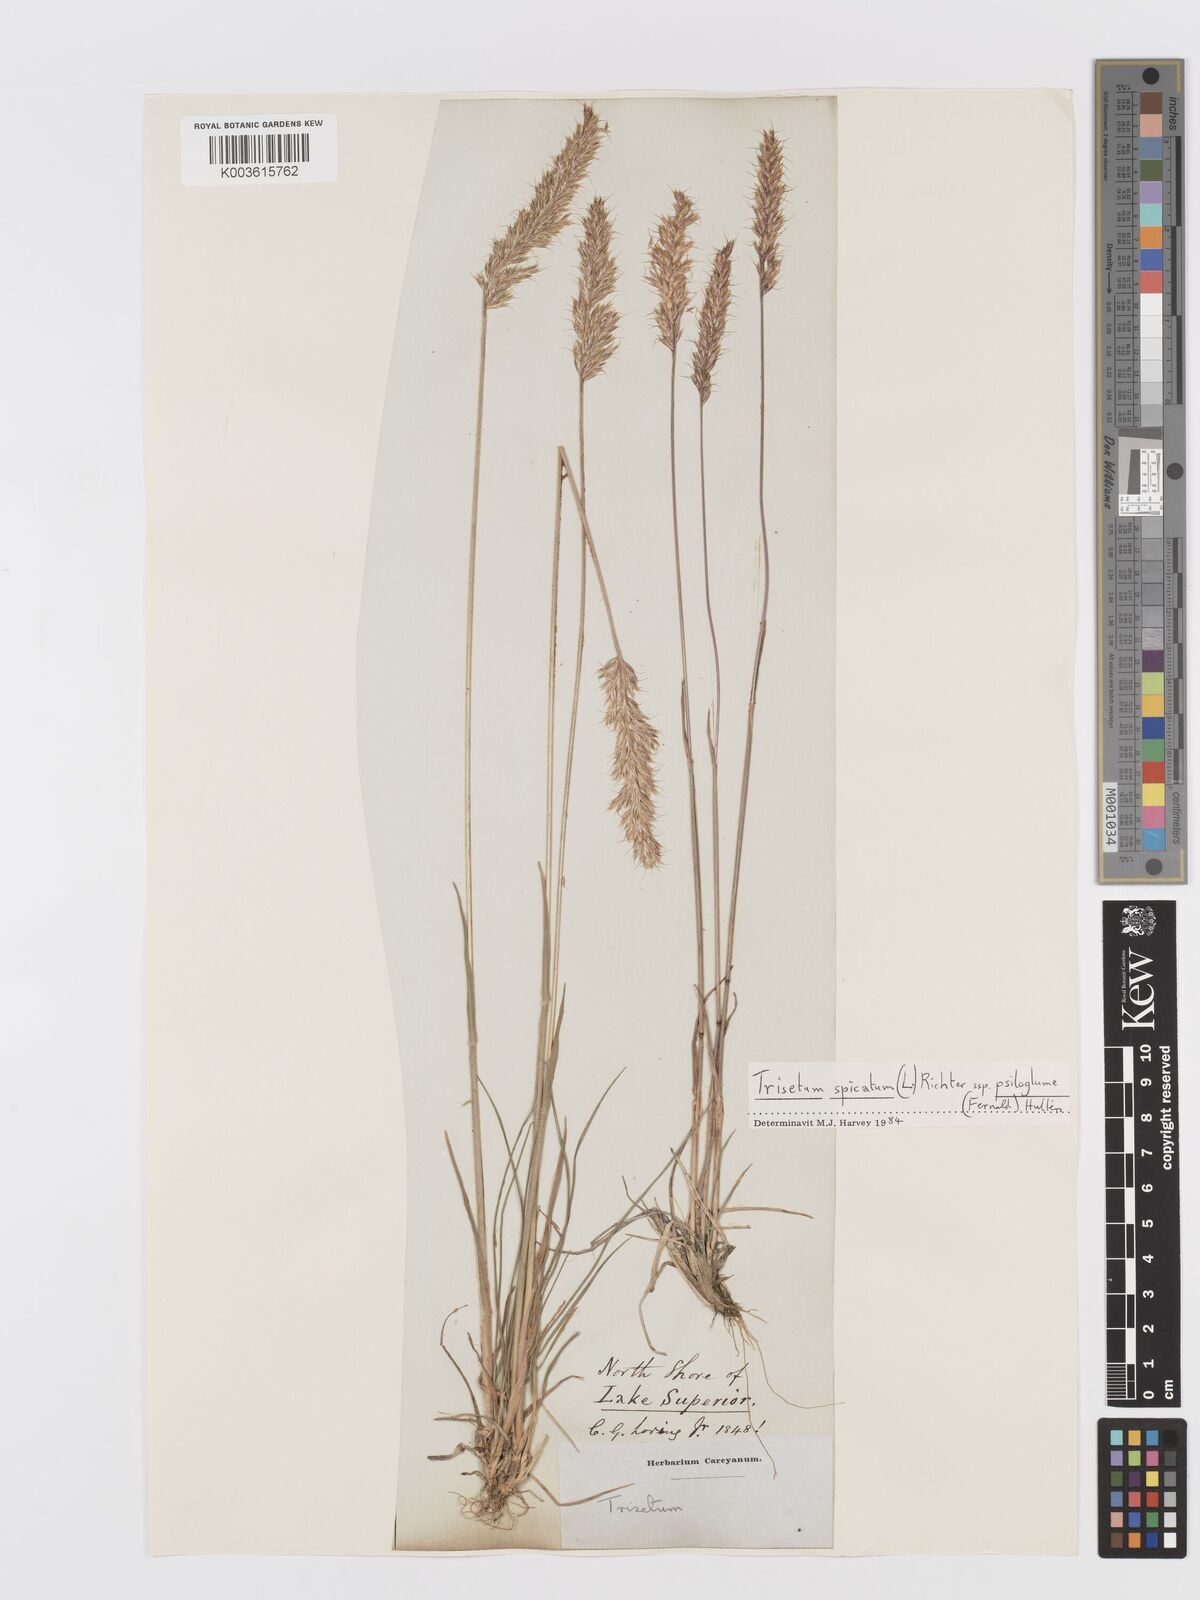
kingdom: Plantae
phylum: Tracheophyta
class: Liliopsida
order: Poales
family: Poaceae
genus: Trisetum
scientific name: Trisetum
